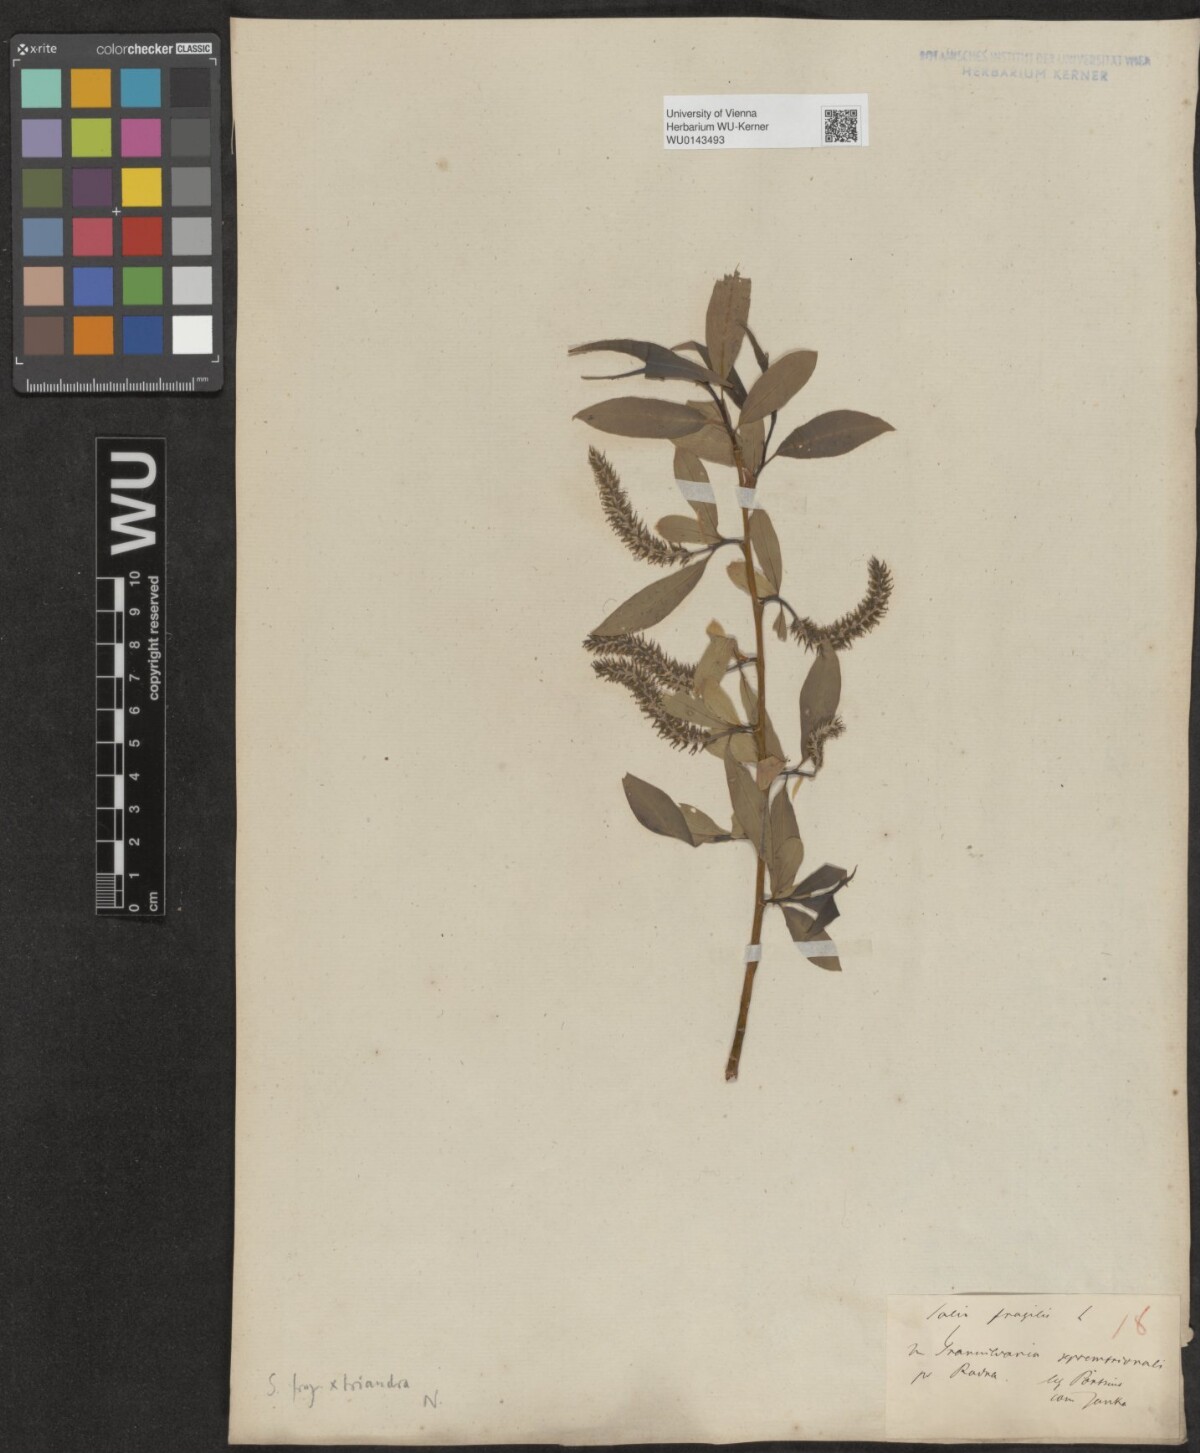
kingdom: Plantae
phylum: Tracheophyta
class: Magnoliopsida
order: Malpighiales
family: Salicaceae
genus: Salix
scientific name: Salix triandra
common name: Almond willow
